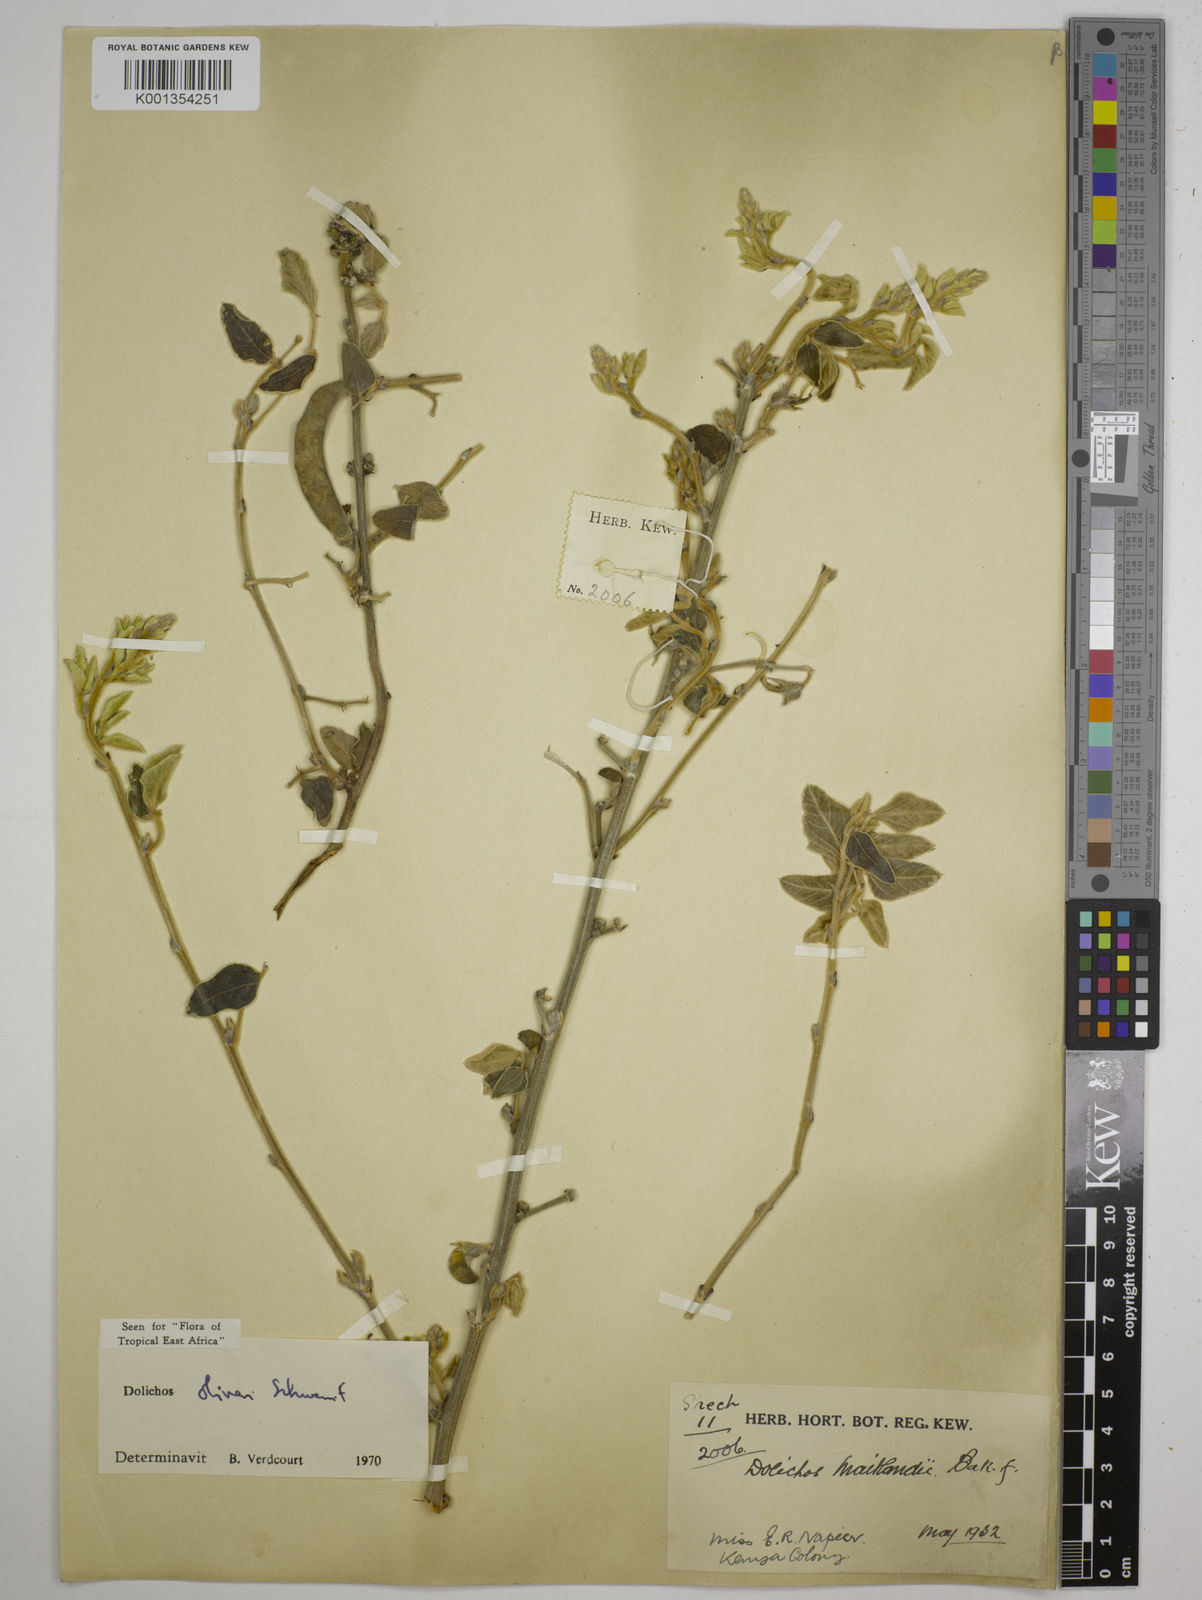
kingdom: Plantae
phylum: Tracheophyta
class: Magnoliopsida
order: Fabales
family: Fabaceae
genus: Dolichos
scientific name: Dolichos oliveri
